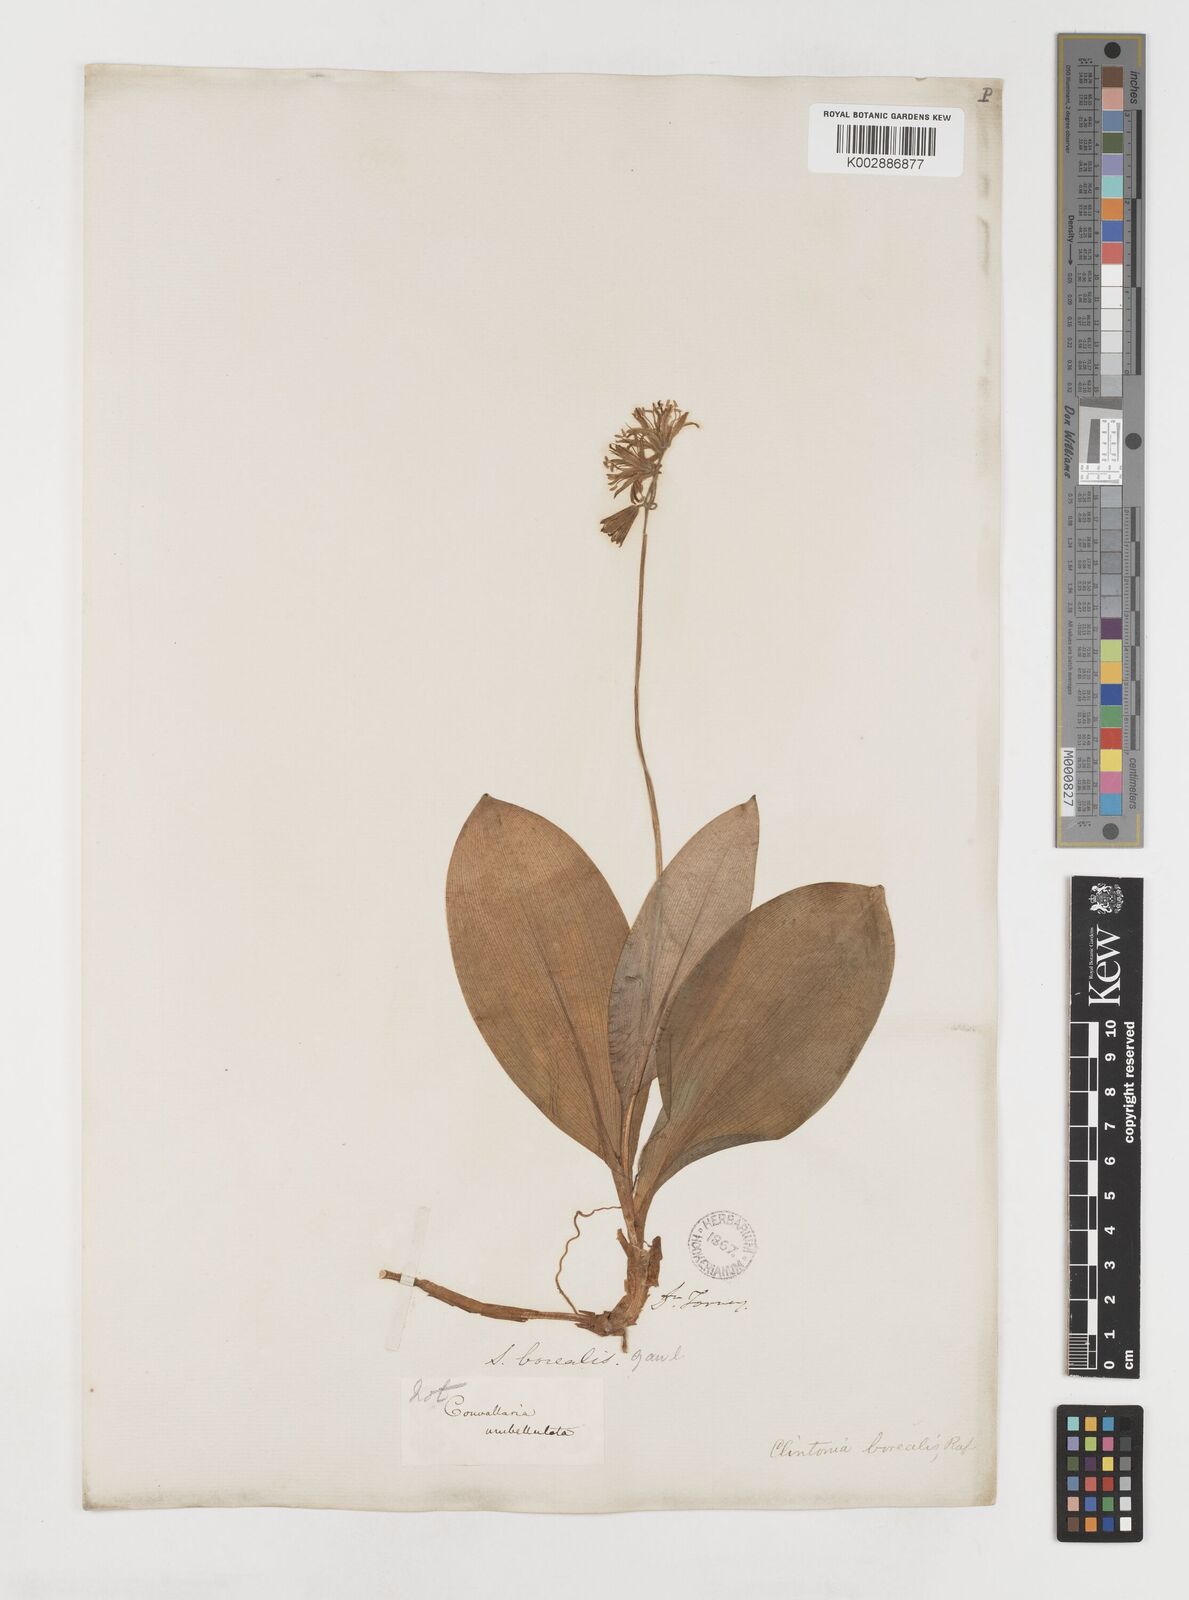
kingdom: Plantae
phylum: Tracheophyta
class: Liliopsida
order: Liliales
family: Liliaceae
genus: Clintonia
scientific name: Clintonia borealis
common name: Yellow clintonia
